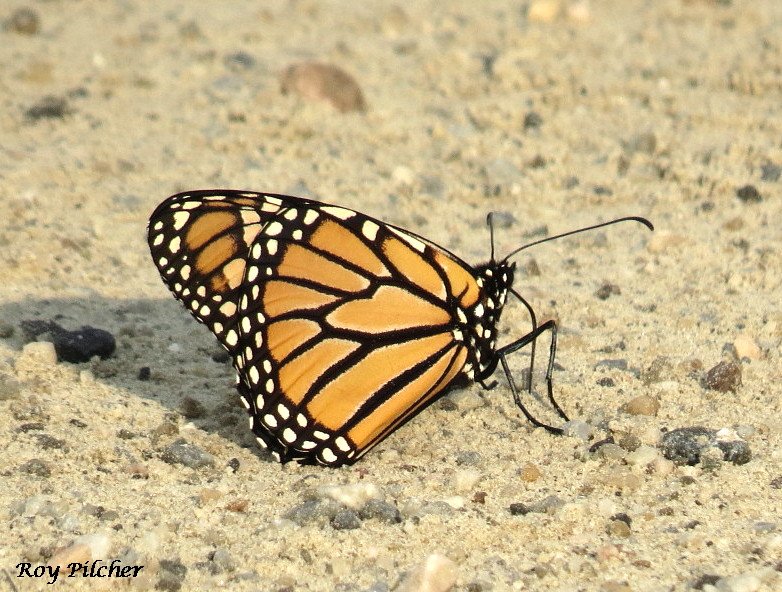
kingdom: Animalia
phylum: Arthropoda
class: Insecta
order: Lepidoptera
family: Nymphalidae
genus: Danaus
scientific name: Danaus plexippus
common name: Monarch
